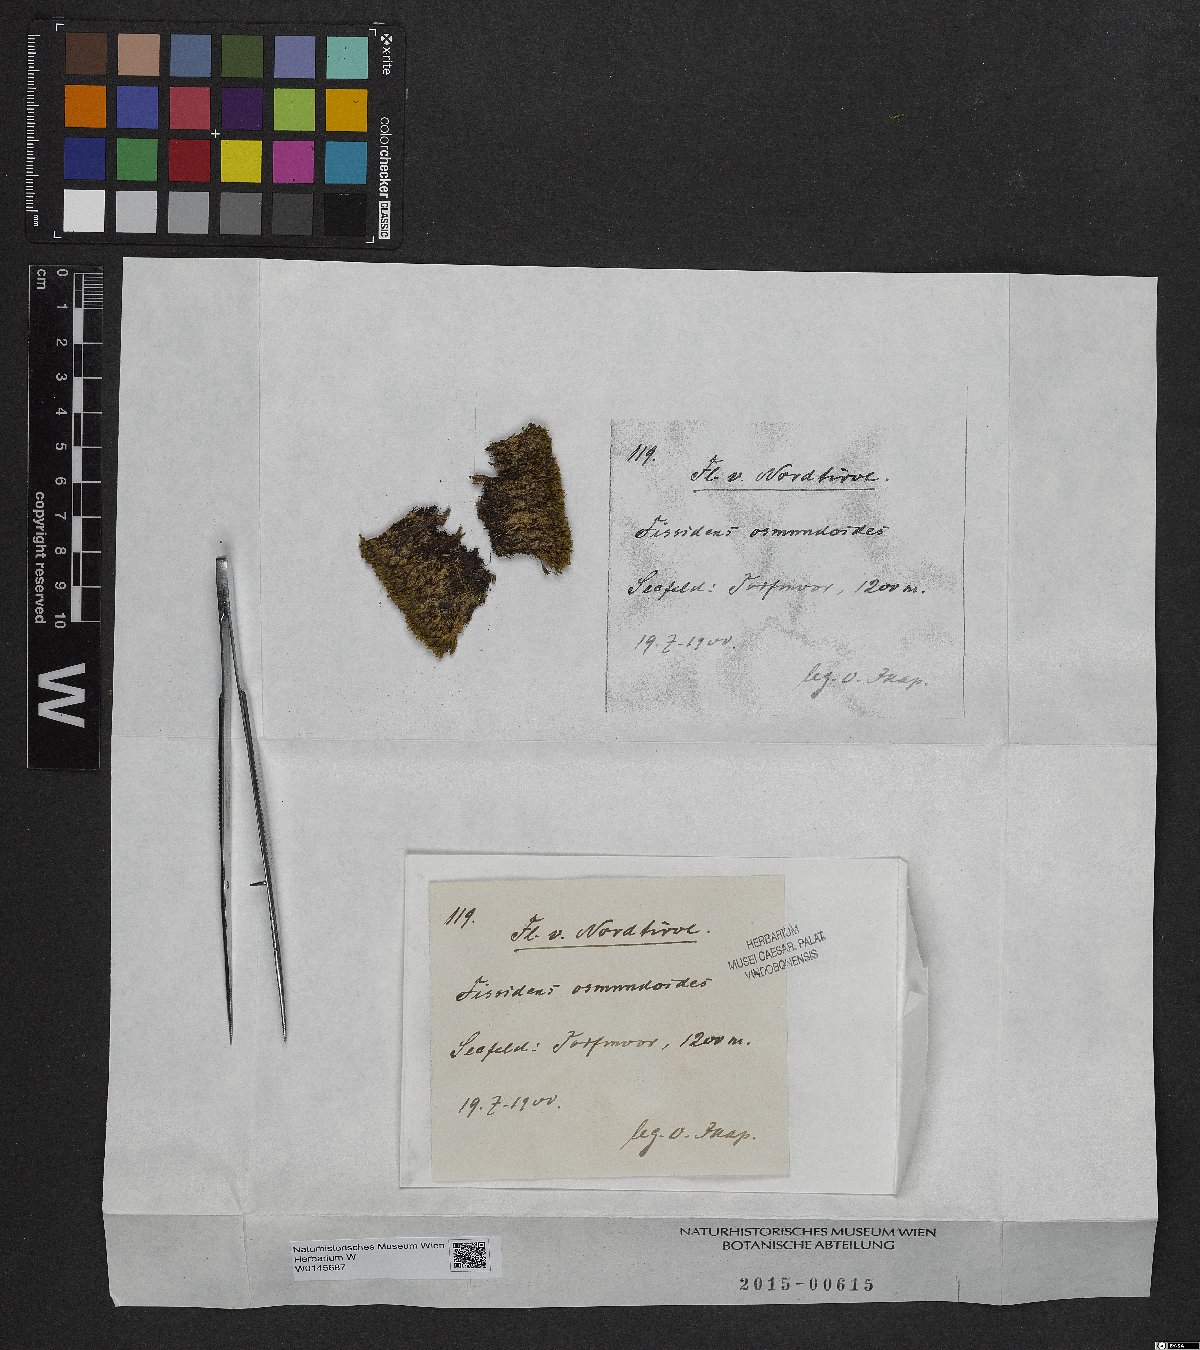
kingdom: Plantae
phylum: Bryophyta
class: Bryopsida
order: Dicranales
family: Fissidentaceae
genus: Fissidens
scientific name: Fissidens osmundoides
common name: Purple-stalked pocket moss
